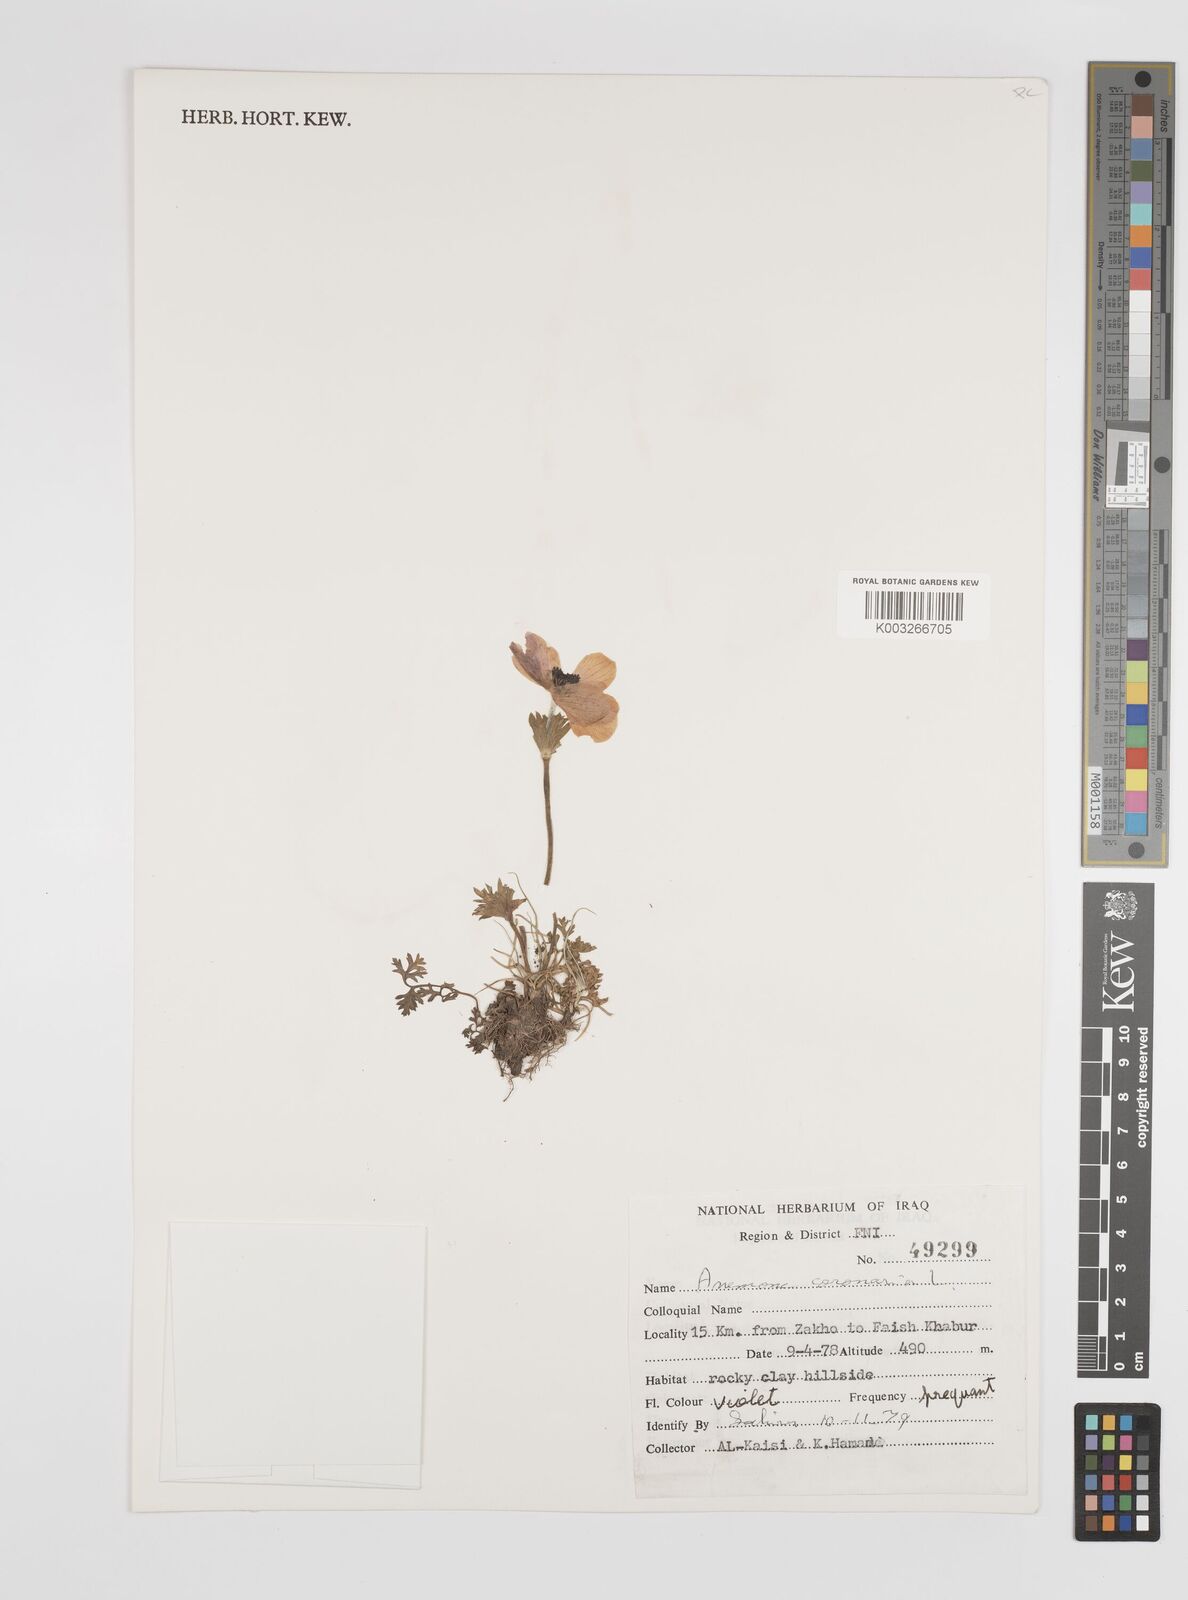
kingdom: Plantae
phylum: Tracheophyta
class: Magnoliopsida
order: Ranunculales
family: Ranunculaceae
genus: Anemone
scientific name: Anemone coronaria
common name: Poppy anemone
